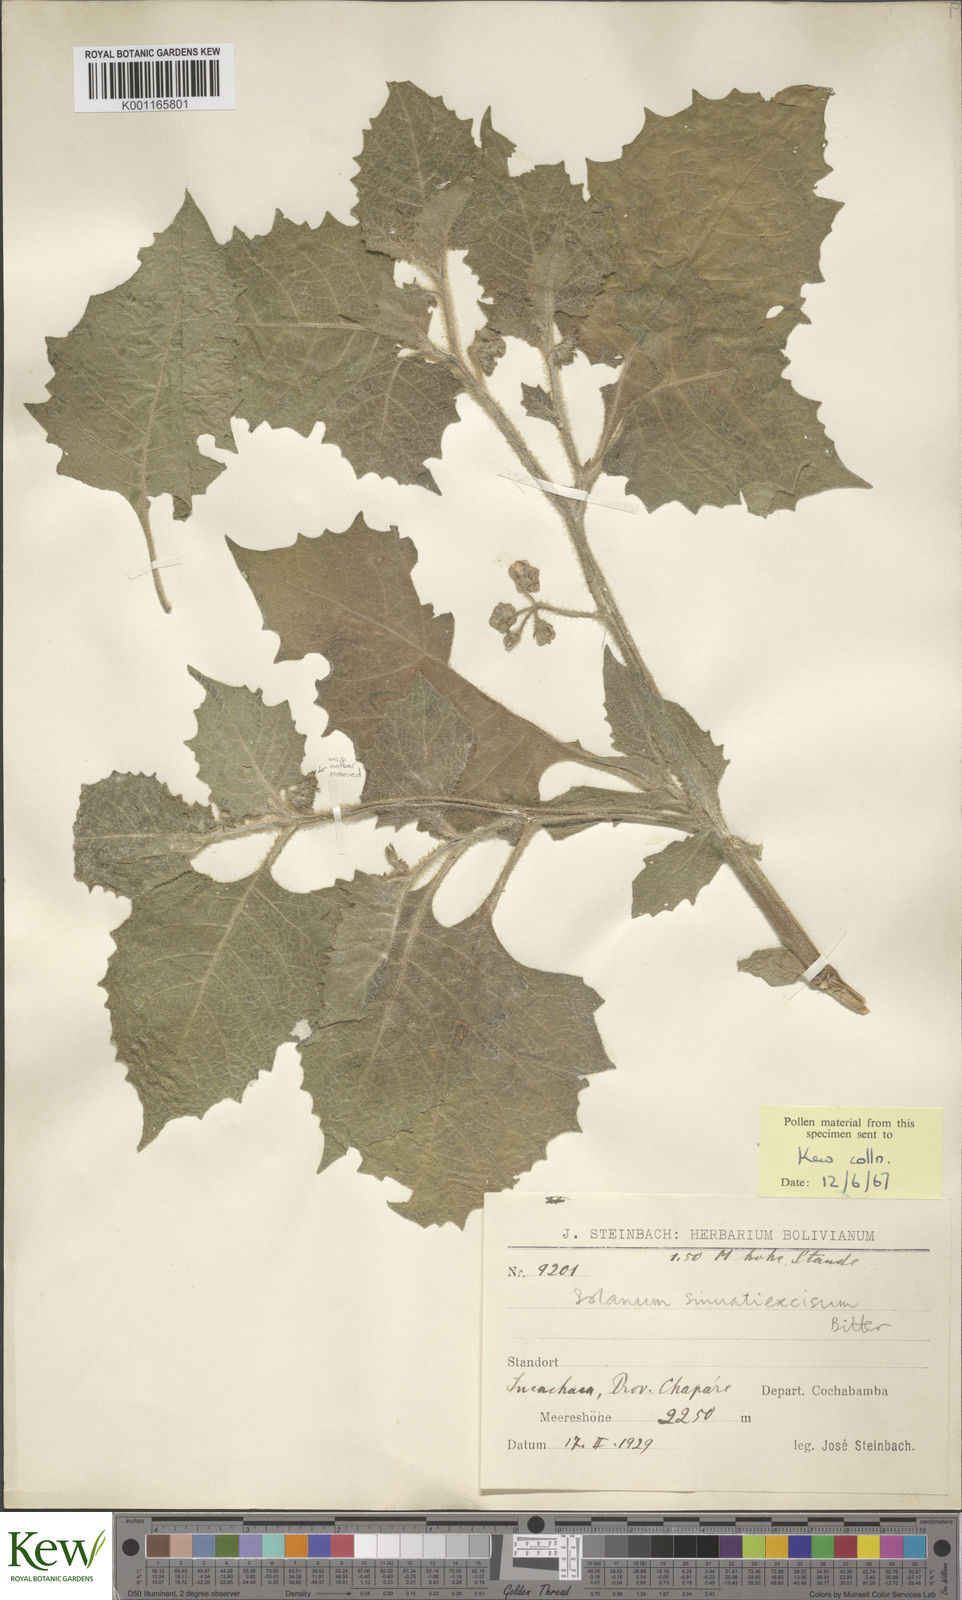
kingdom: Plantae
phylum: Tracheophyta
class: Magnoliopsida
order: Solanales
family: Solanaceae
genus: Solanum
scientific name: Solanum sinuatiexcisum
